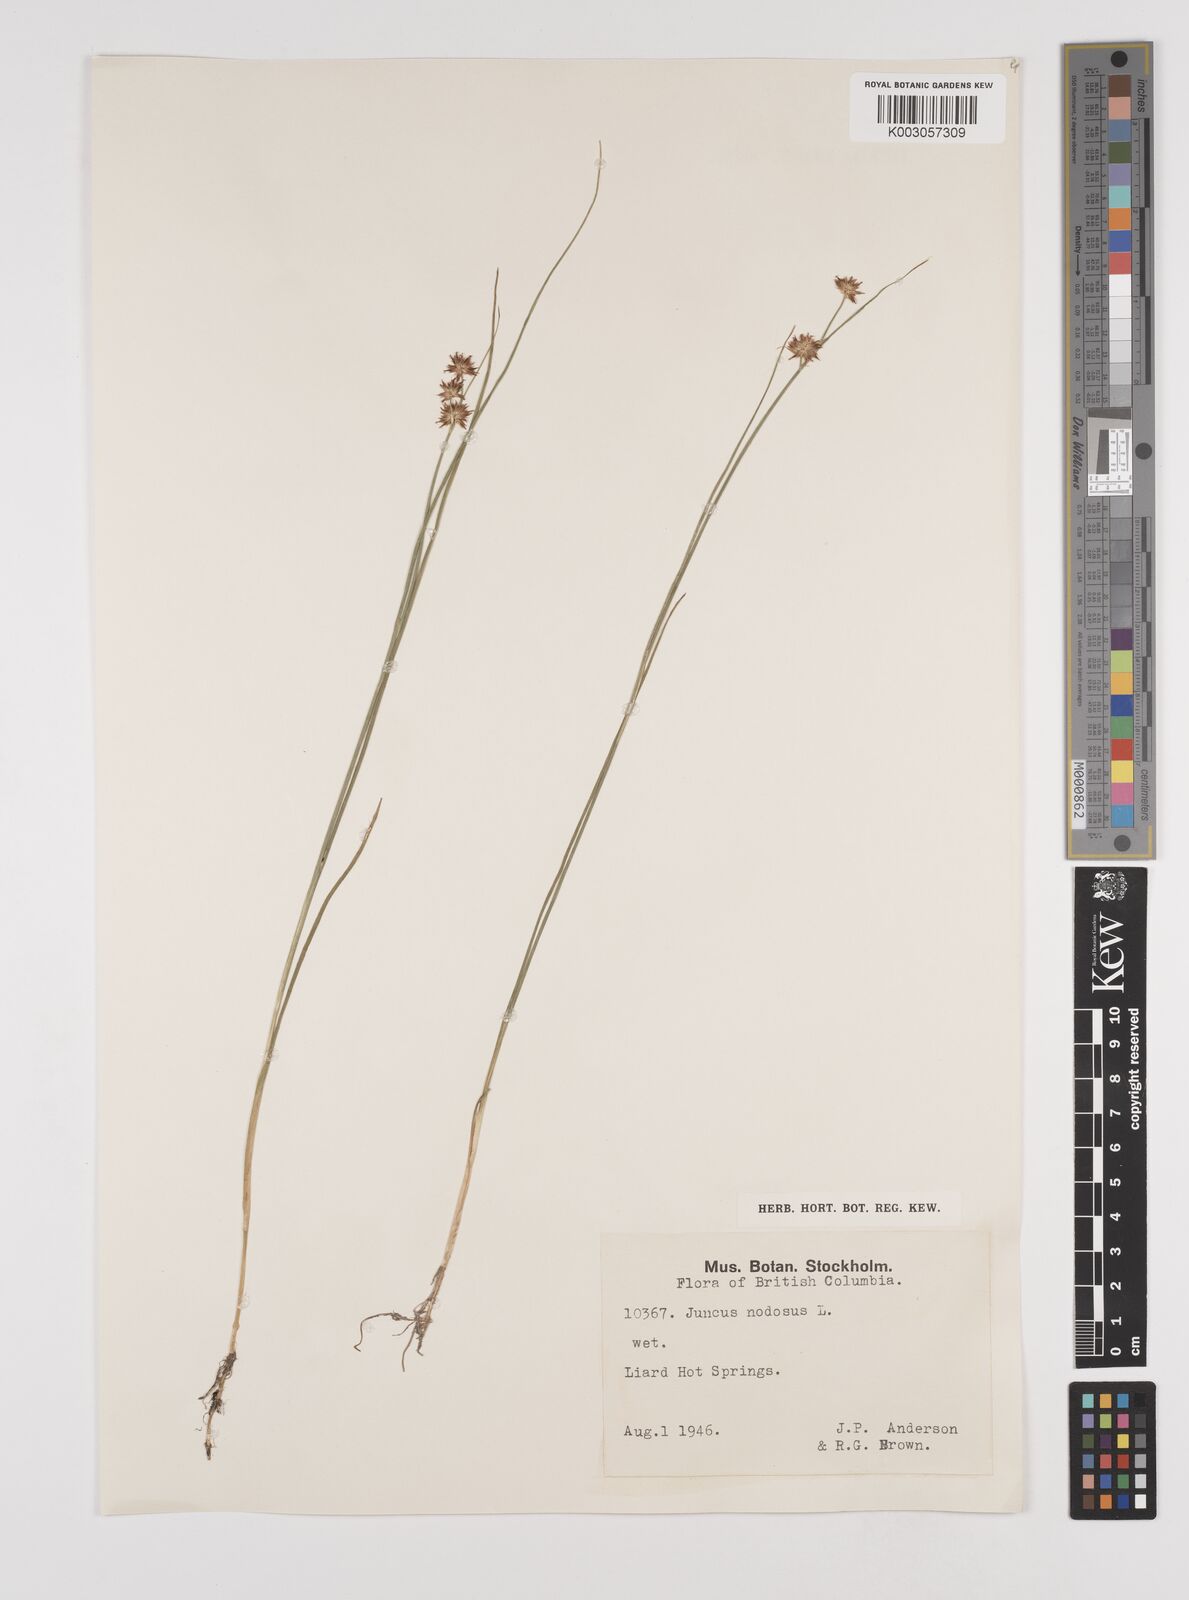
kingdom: Plantae
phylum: Tracheophyta
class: Liliopsida
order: Poales
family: Juncaceae
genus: Juncus
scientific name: Juncus nodosus
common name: Knotted rush
